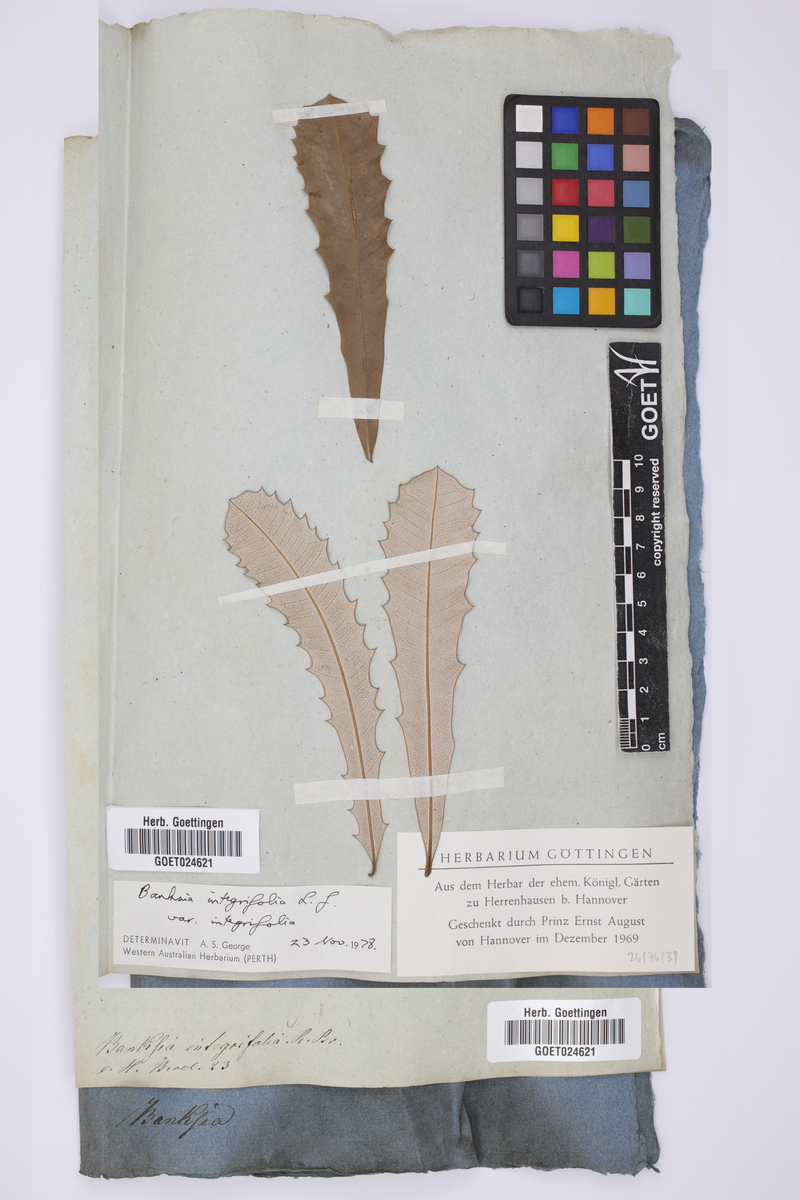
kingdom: Plantae
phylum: Tracheophyta
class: Magnoliopsida
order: Proteales
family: Proteaceae
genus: Banksia
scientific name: Banksia integrifolia
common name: White-honeysuckle
